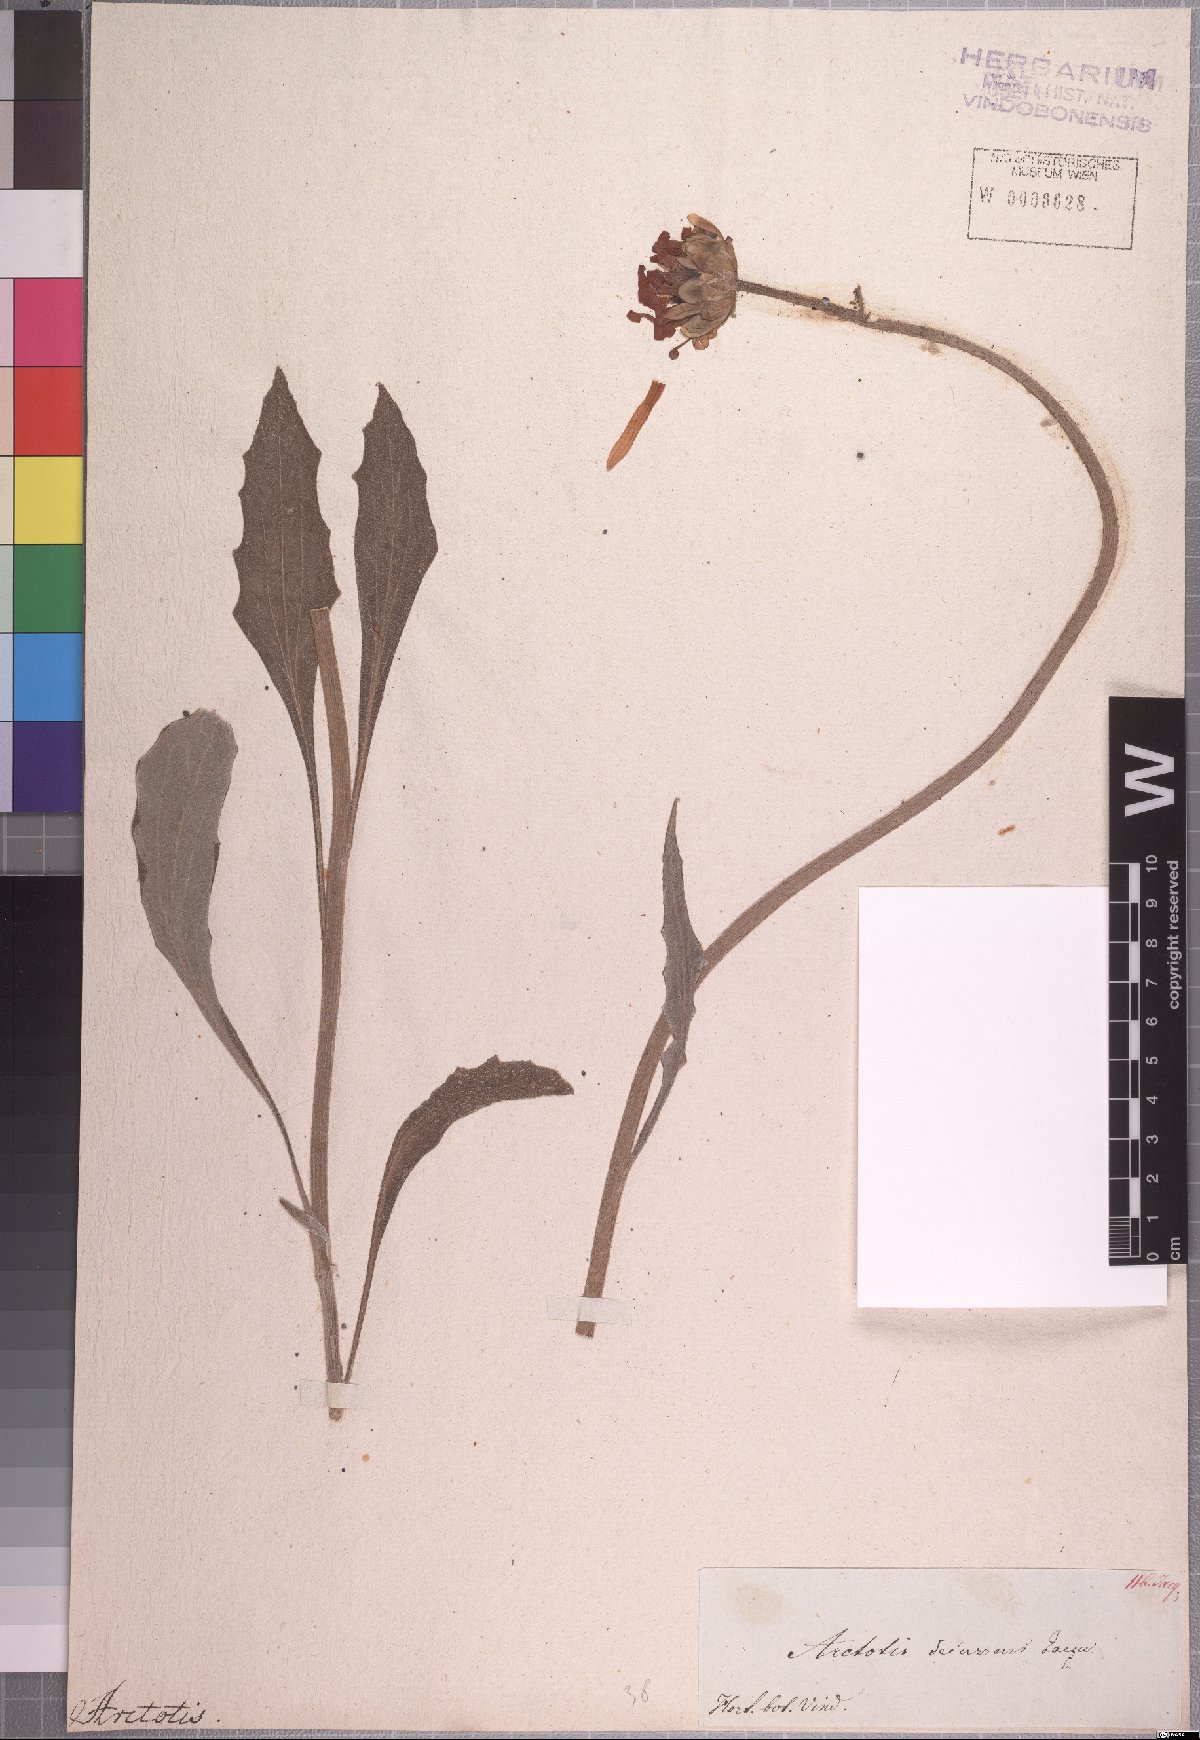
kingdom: Plantae
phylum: Tracheophyta
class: Magnoliopsida
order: Asterales
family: Asteraceae
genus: Arctotis
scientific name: Arctotis decurrens
